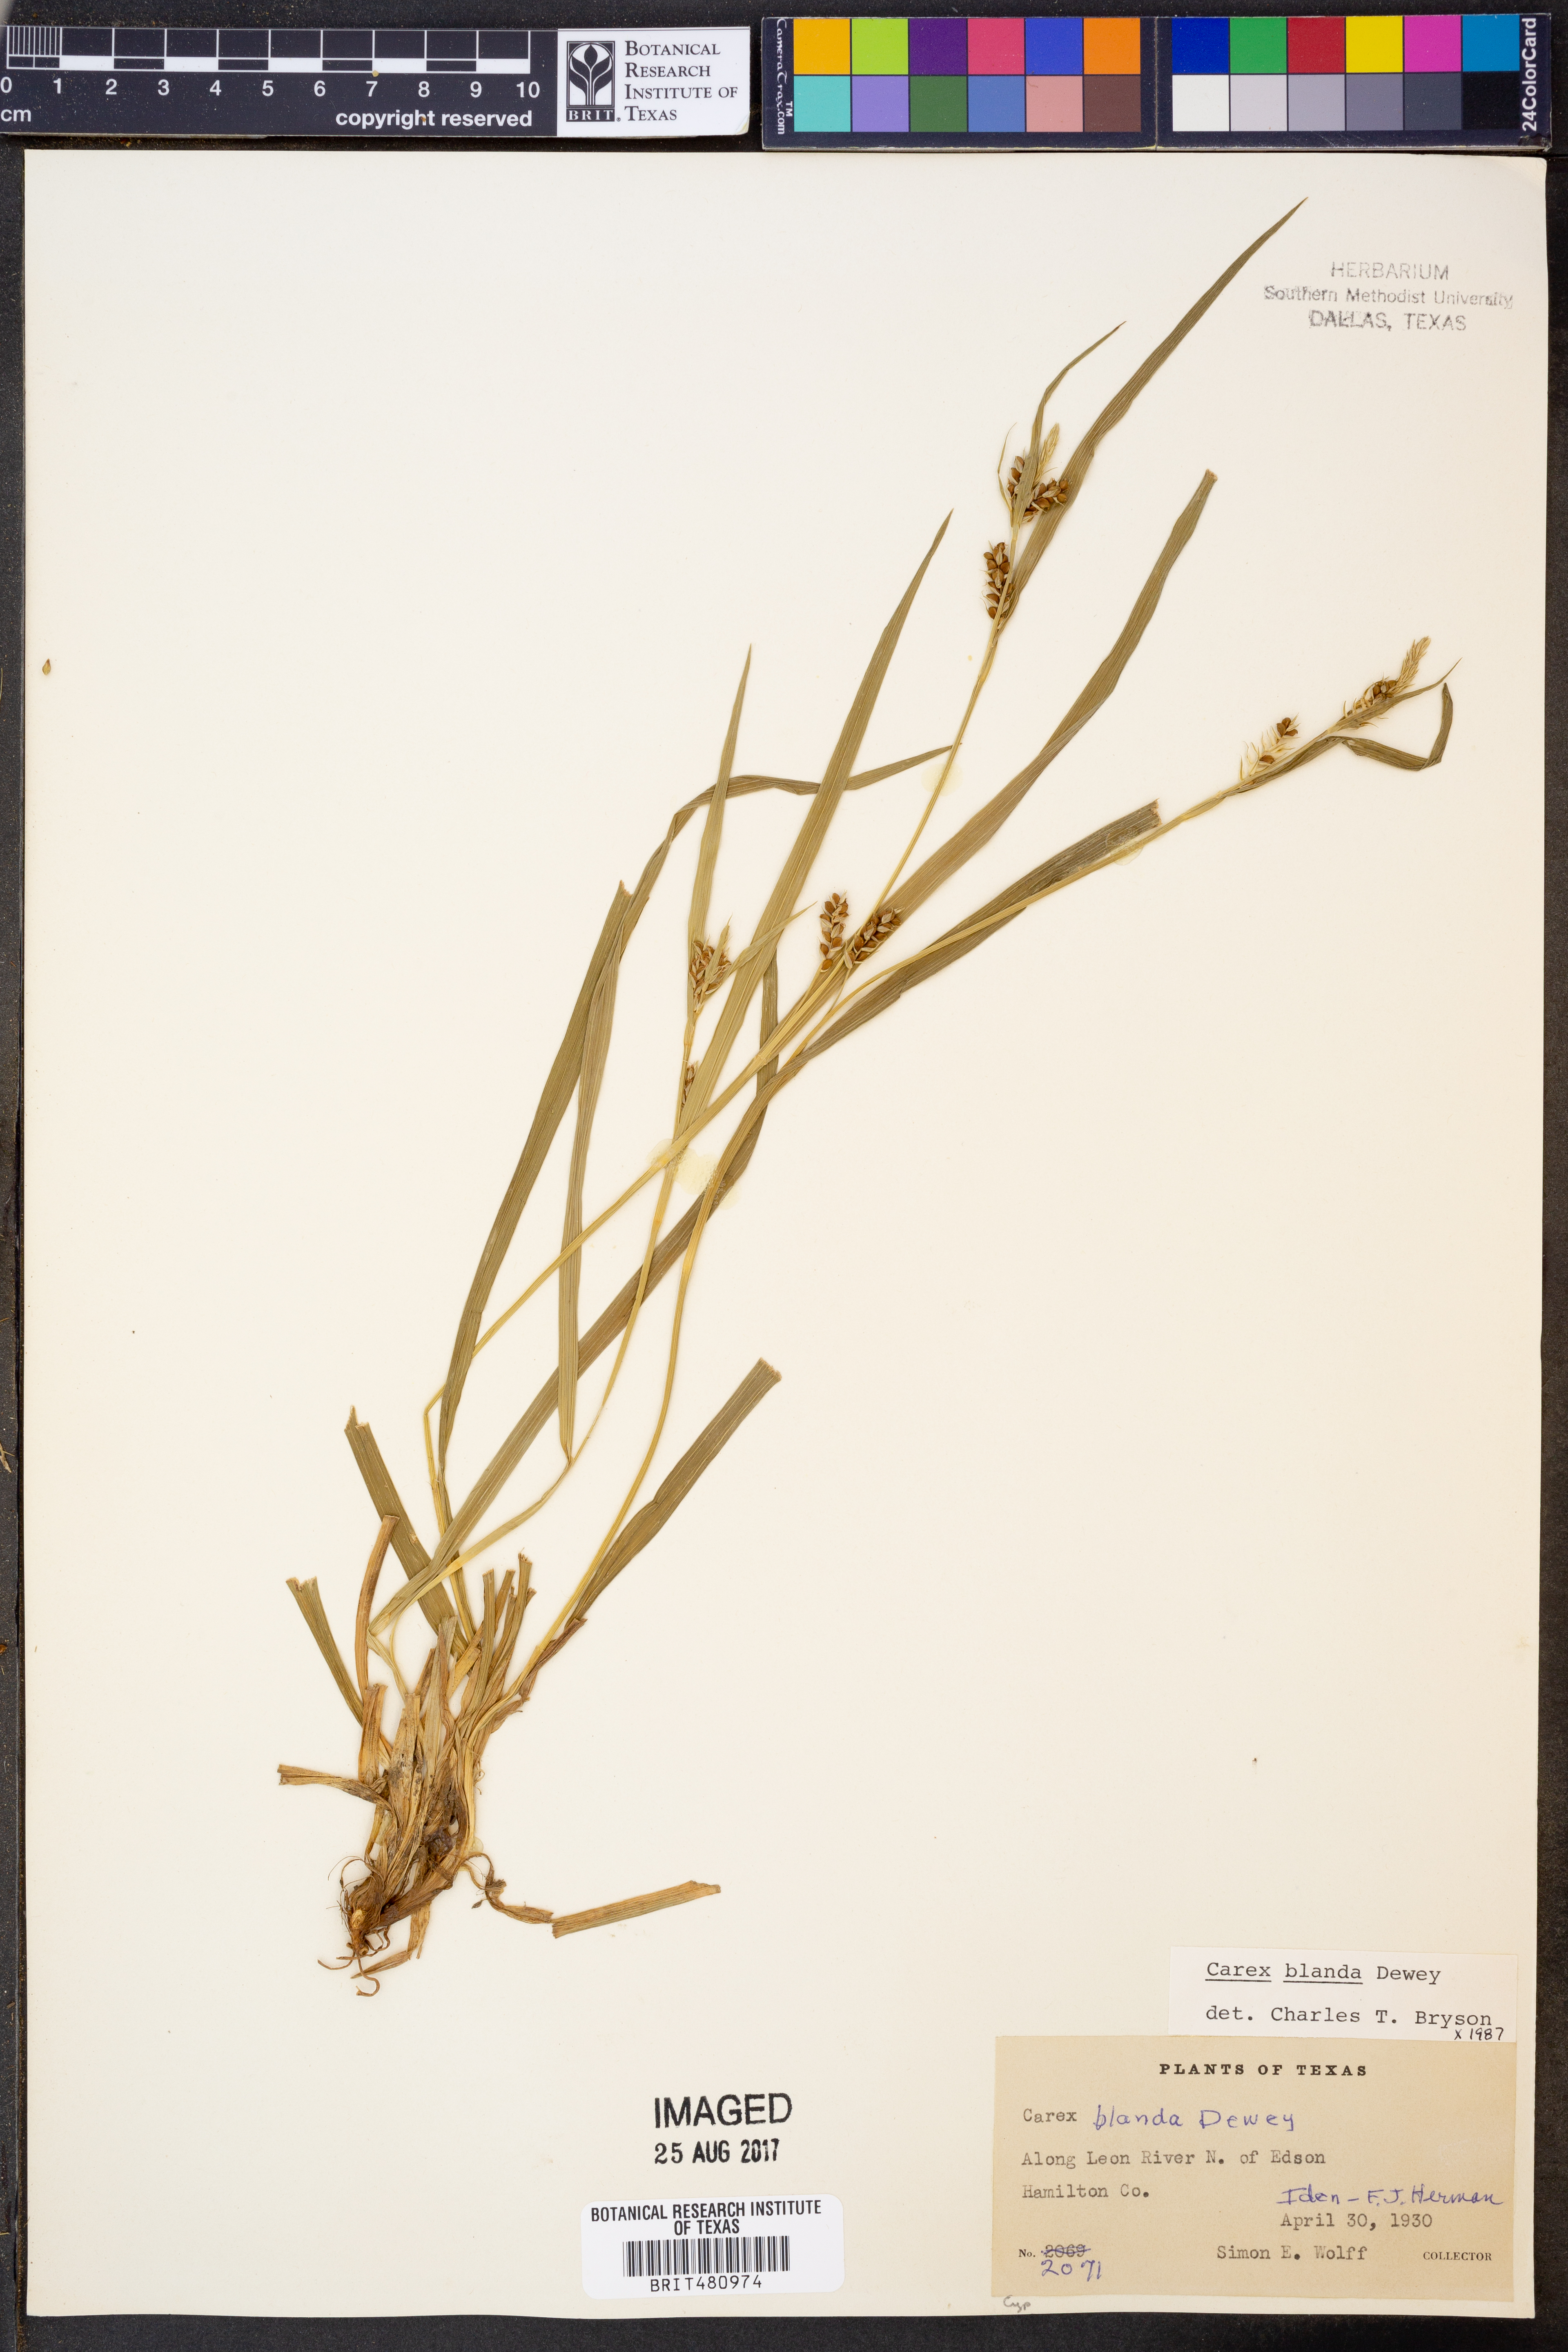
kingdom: Plantae
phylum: Tracheophyta
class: Liliopsida
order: Poales
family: Cyperaceae
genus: Carex
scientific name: Carex blanda
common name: Bland sedge
